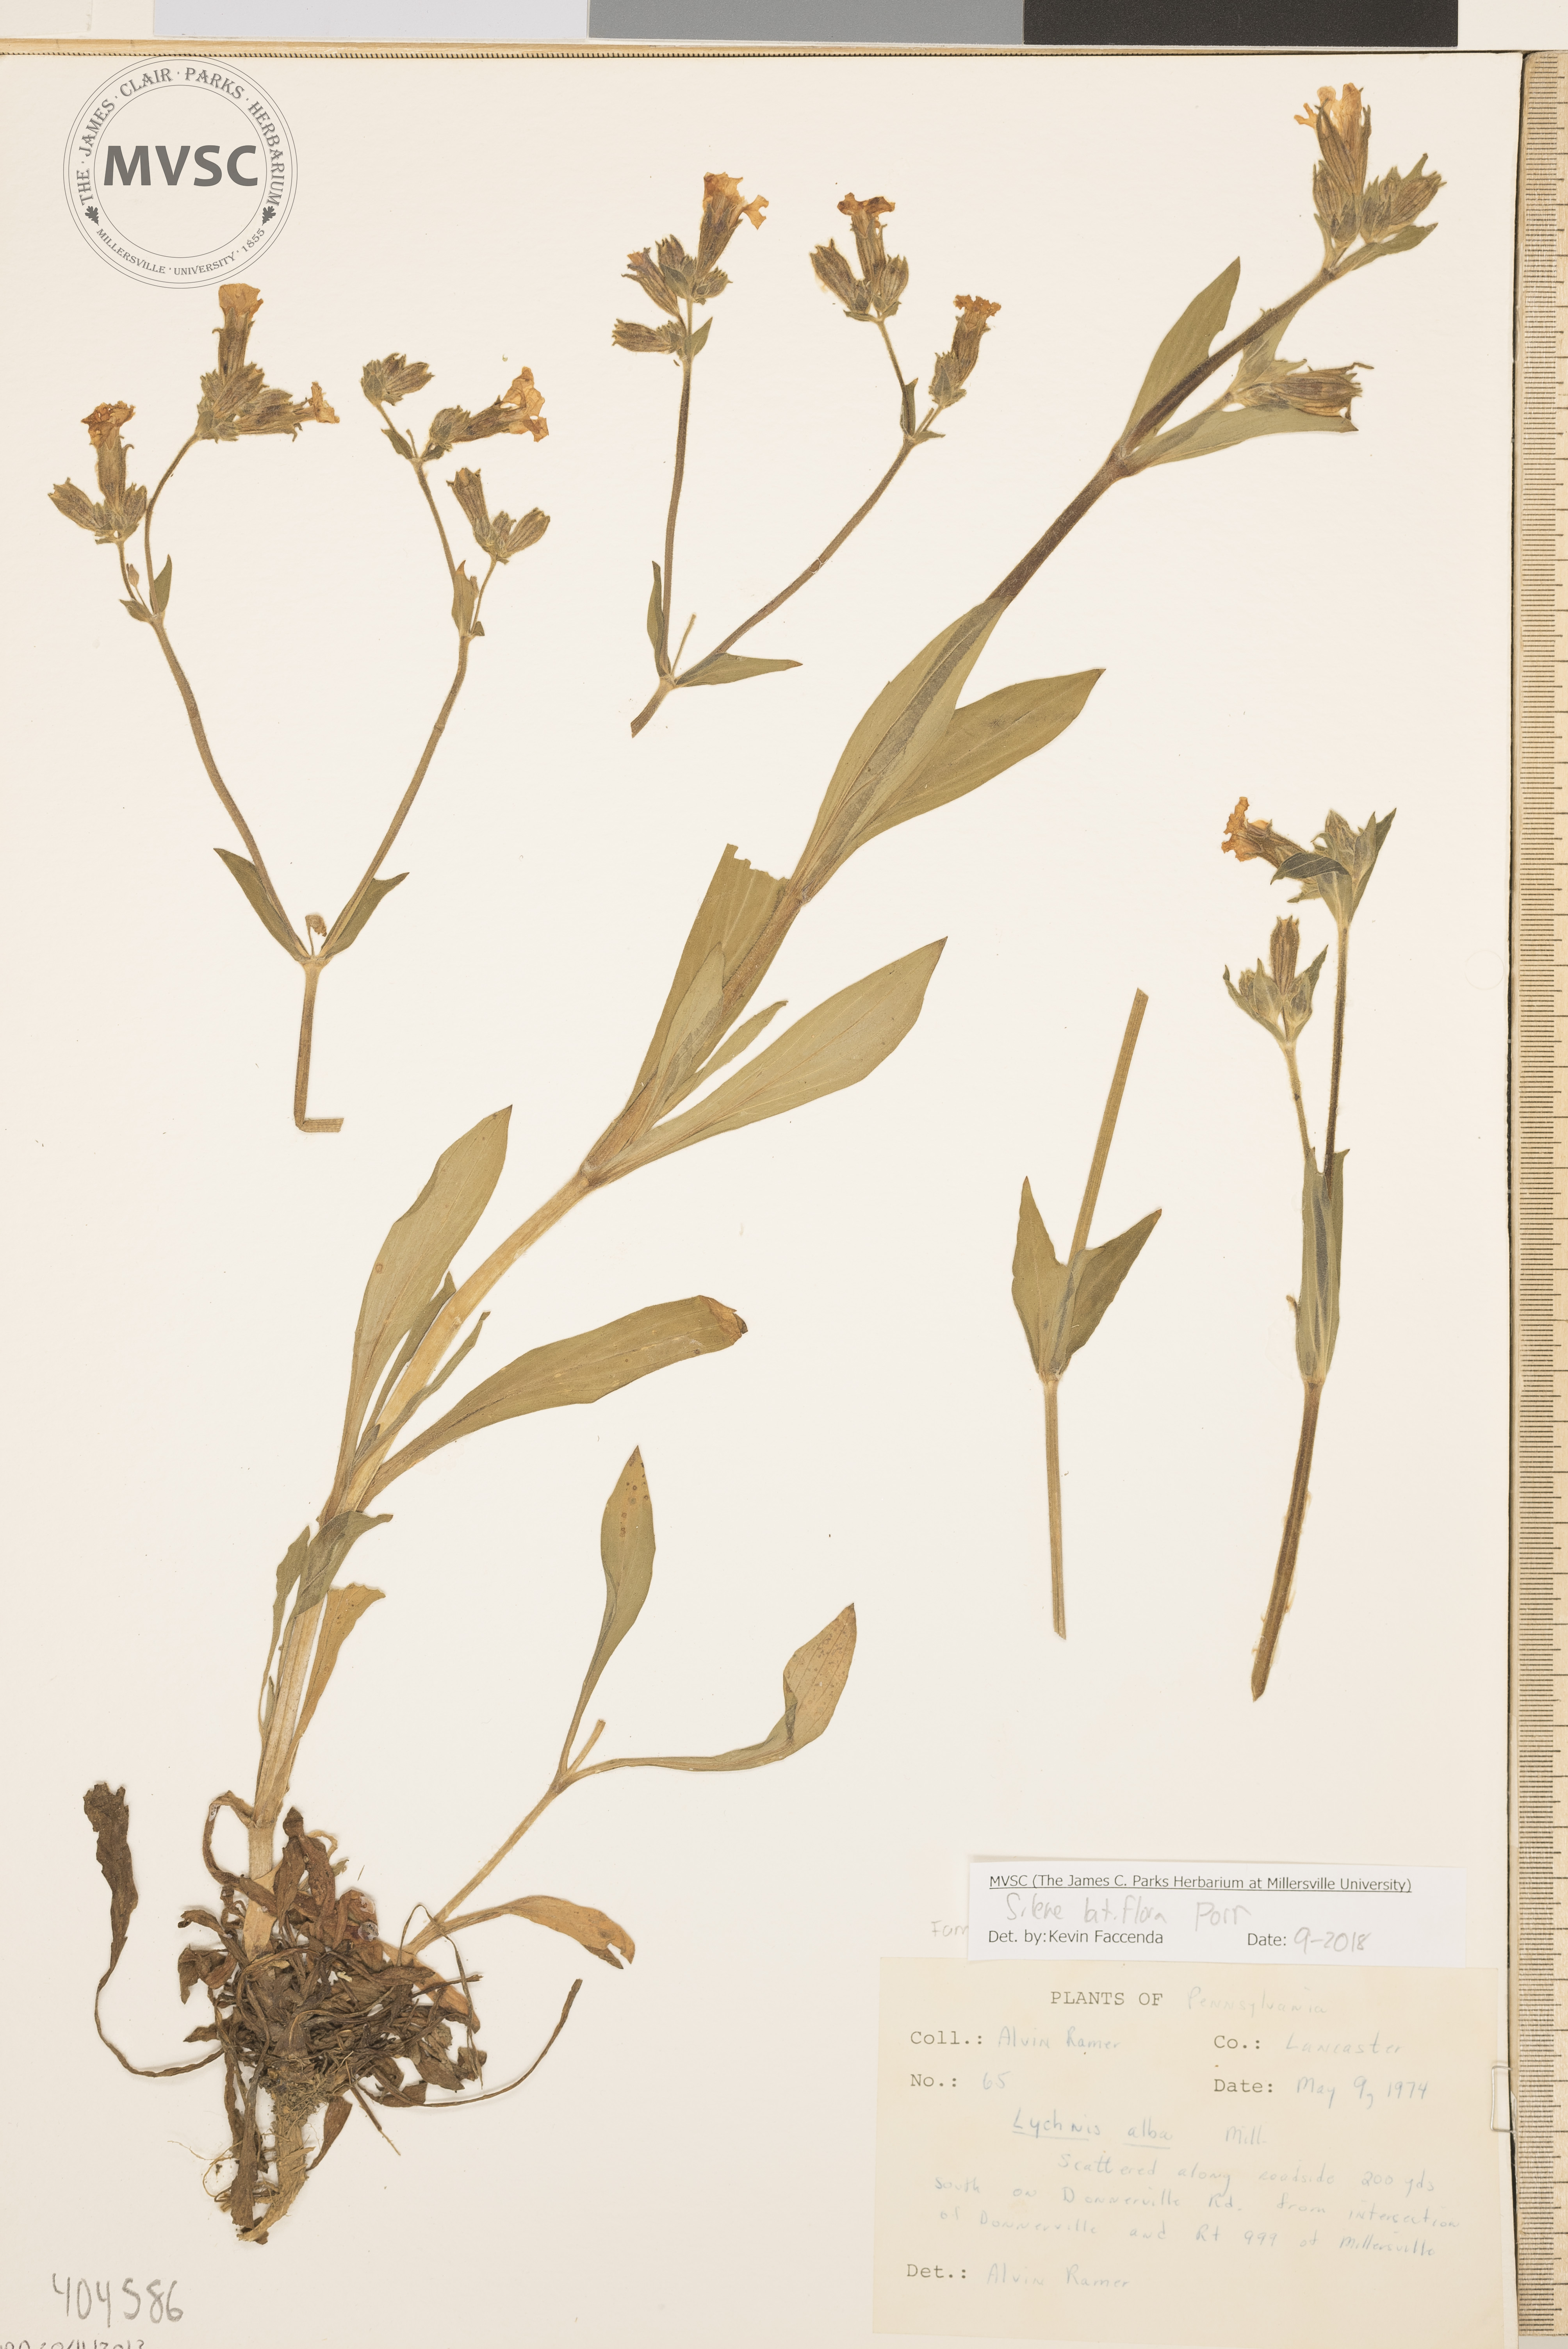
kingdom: Plantae
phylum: Tracheophyta
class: Magnoliopsida
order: Caryophyllales
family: Caryophyllaceae
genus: Silene
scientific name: Silene latifolia
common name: White campion
